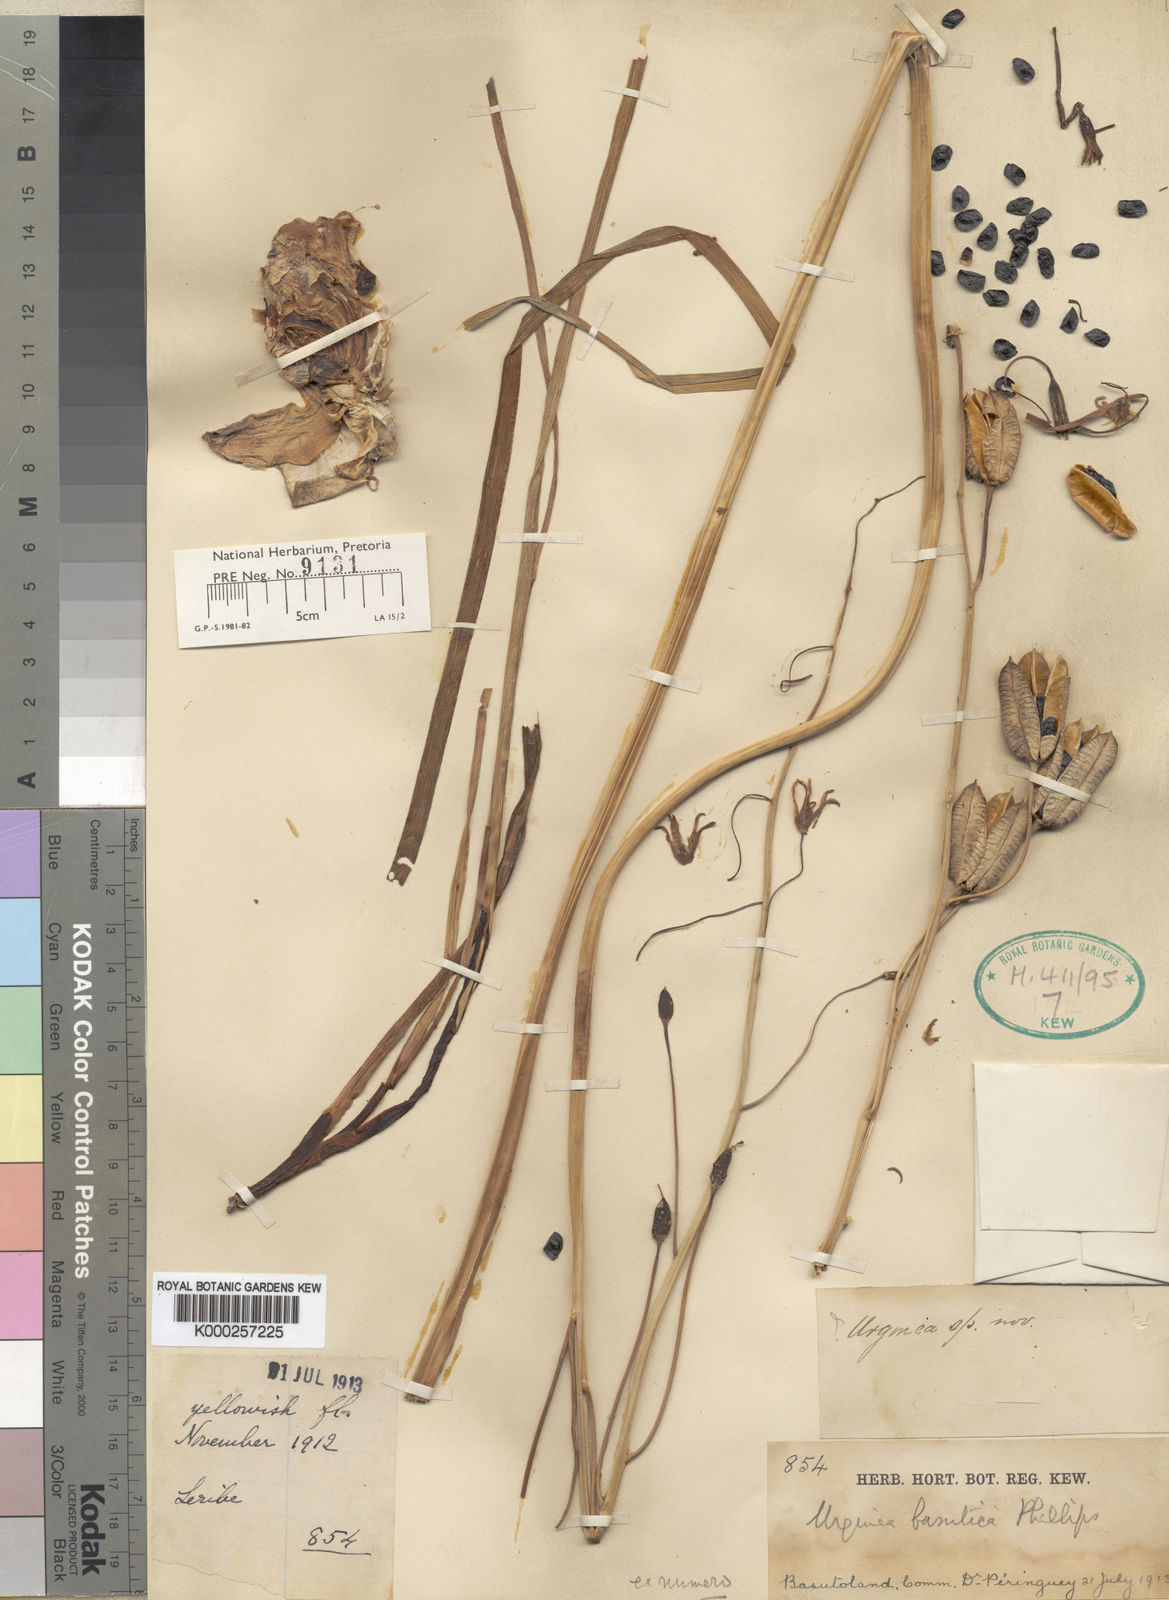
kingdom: Plantae
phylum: Tracheophyta
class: Liliopsida
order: Asparagales
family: Asparagaceae
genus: Drimia
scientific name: Drimia basutica
